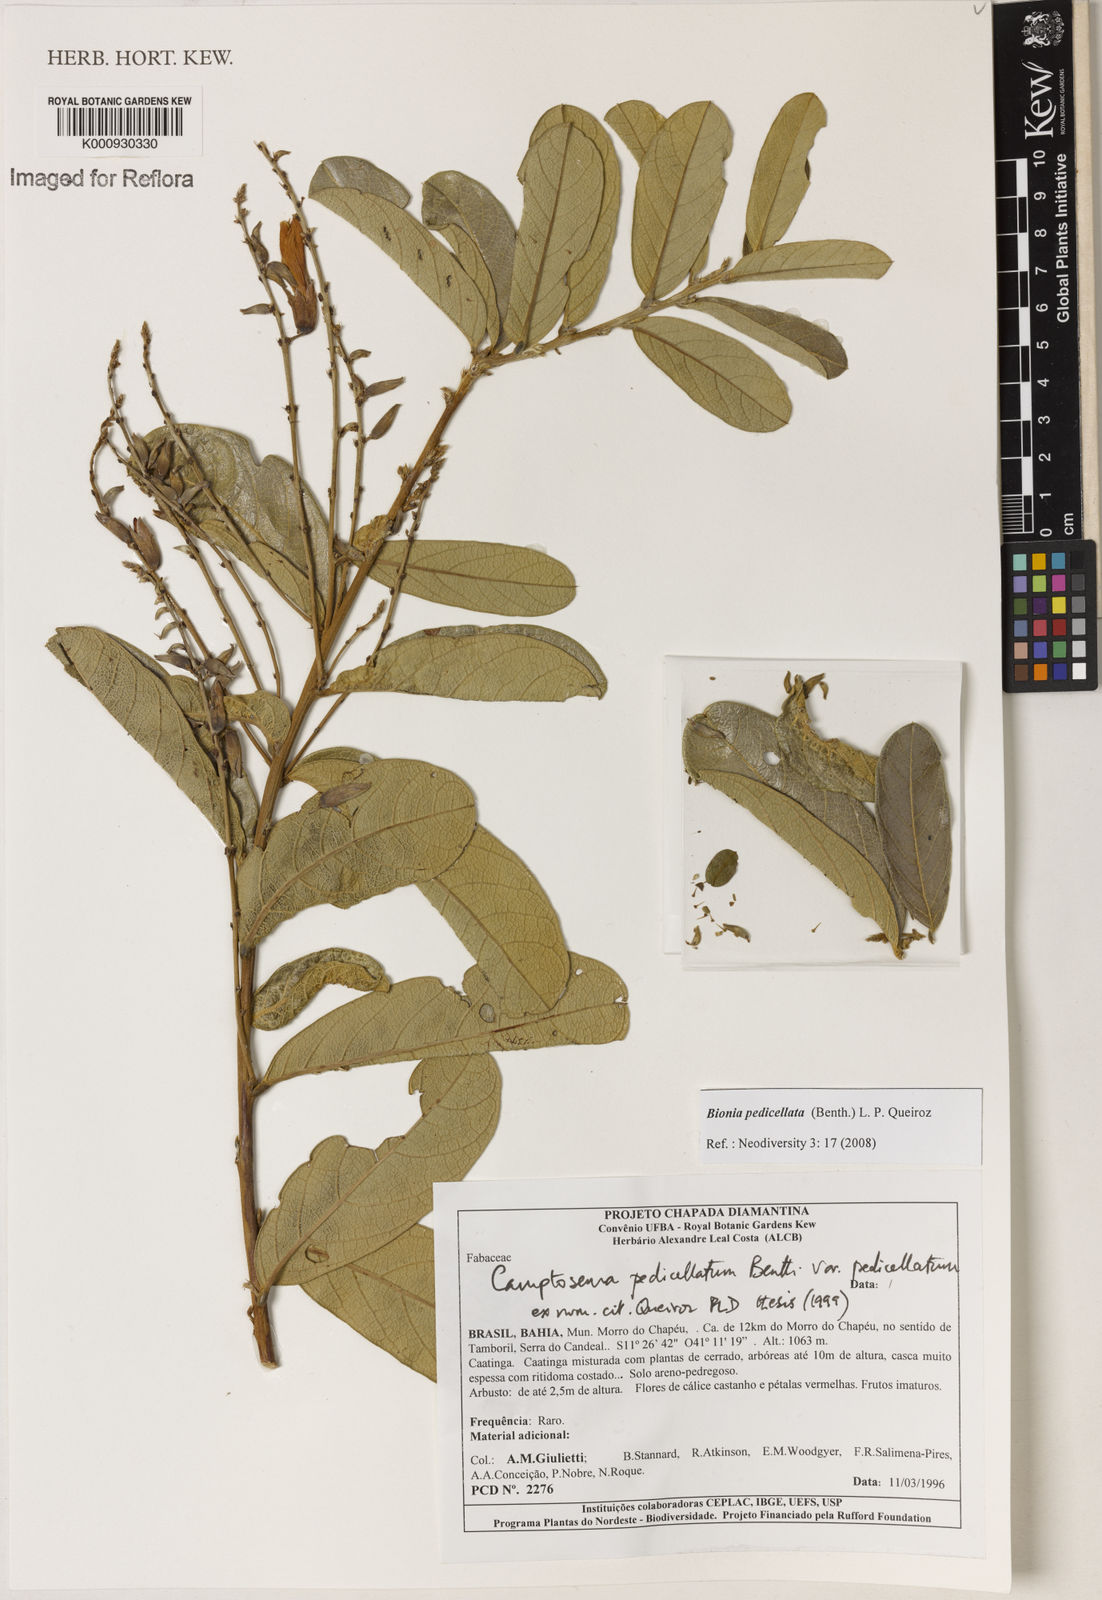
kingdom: Plantae
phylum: Tracheophyta
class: Magnoliopsida
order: Fabales
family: Fabaceae
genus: Camptosema
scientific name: Camptosema pedicellatum
